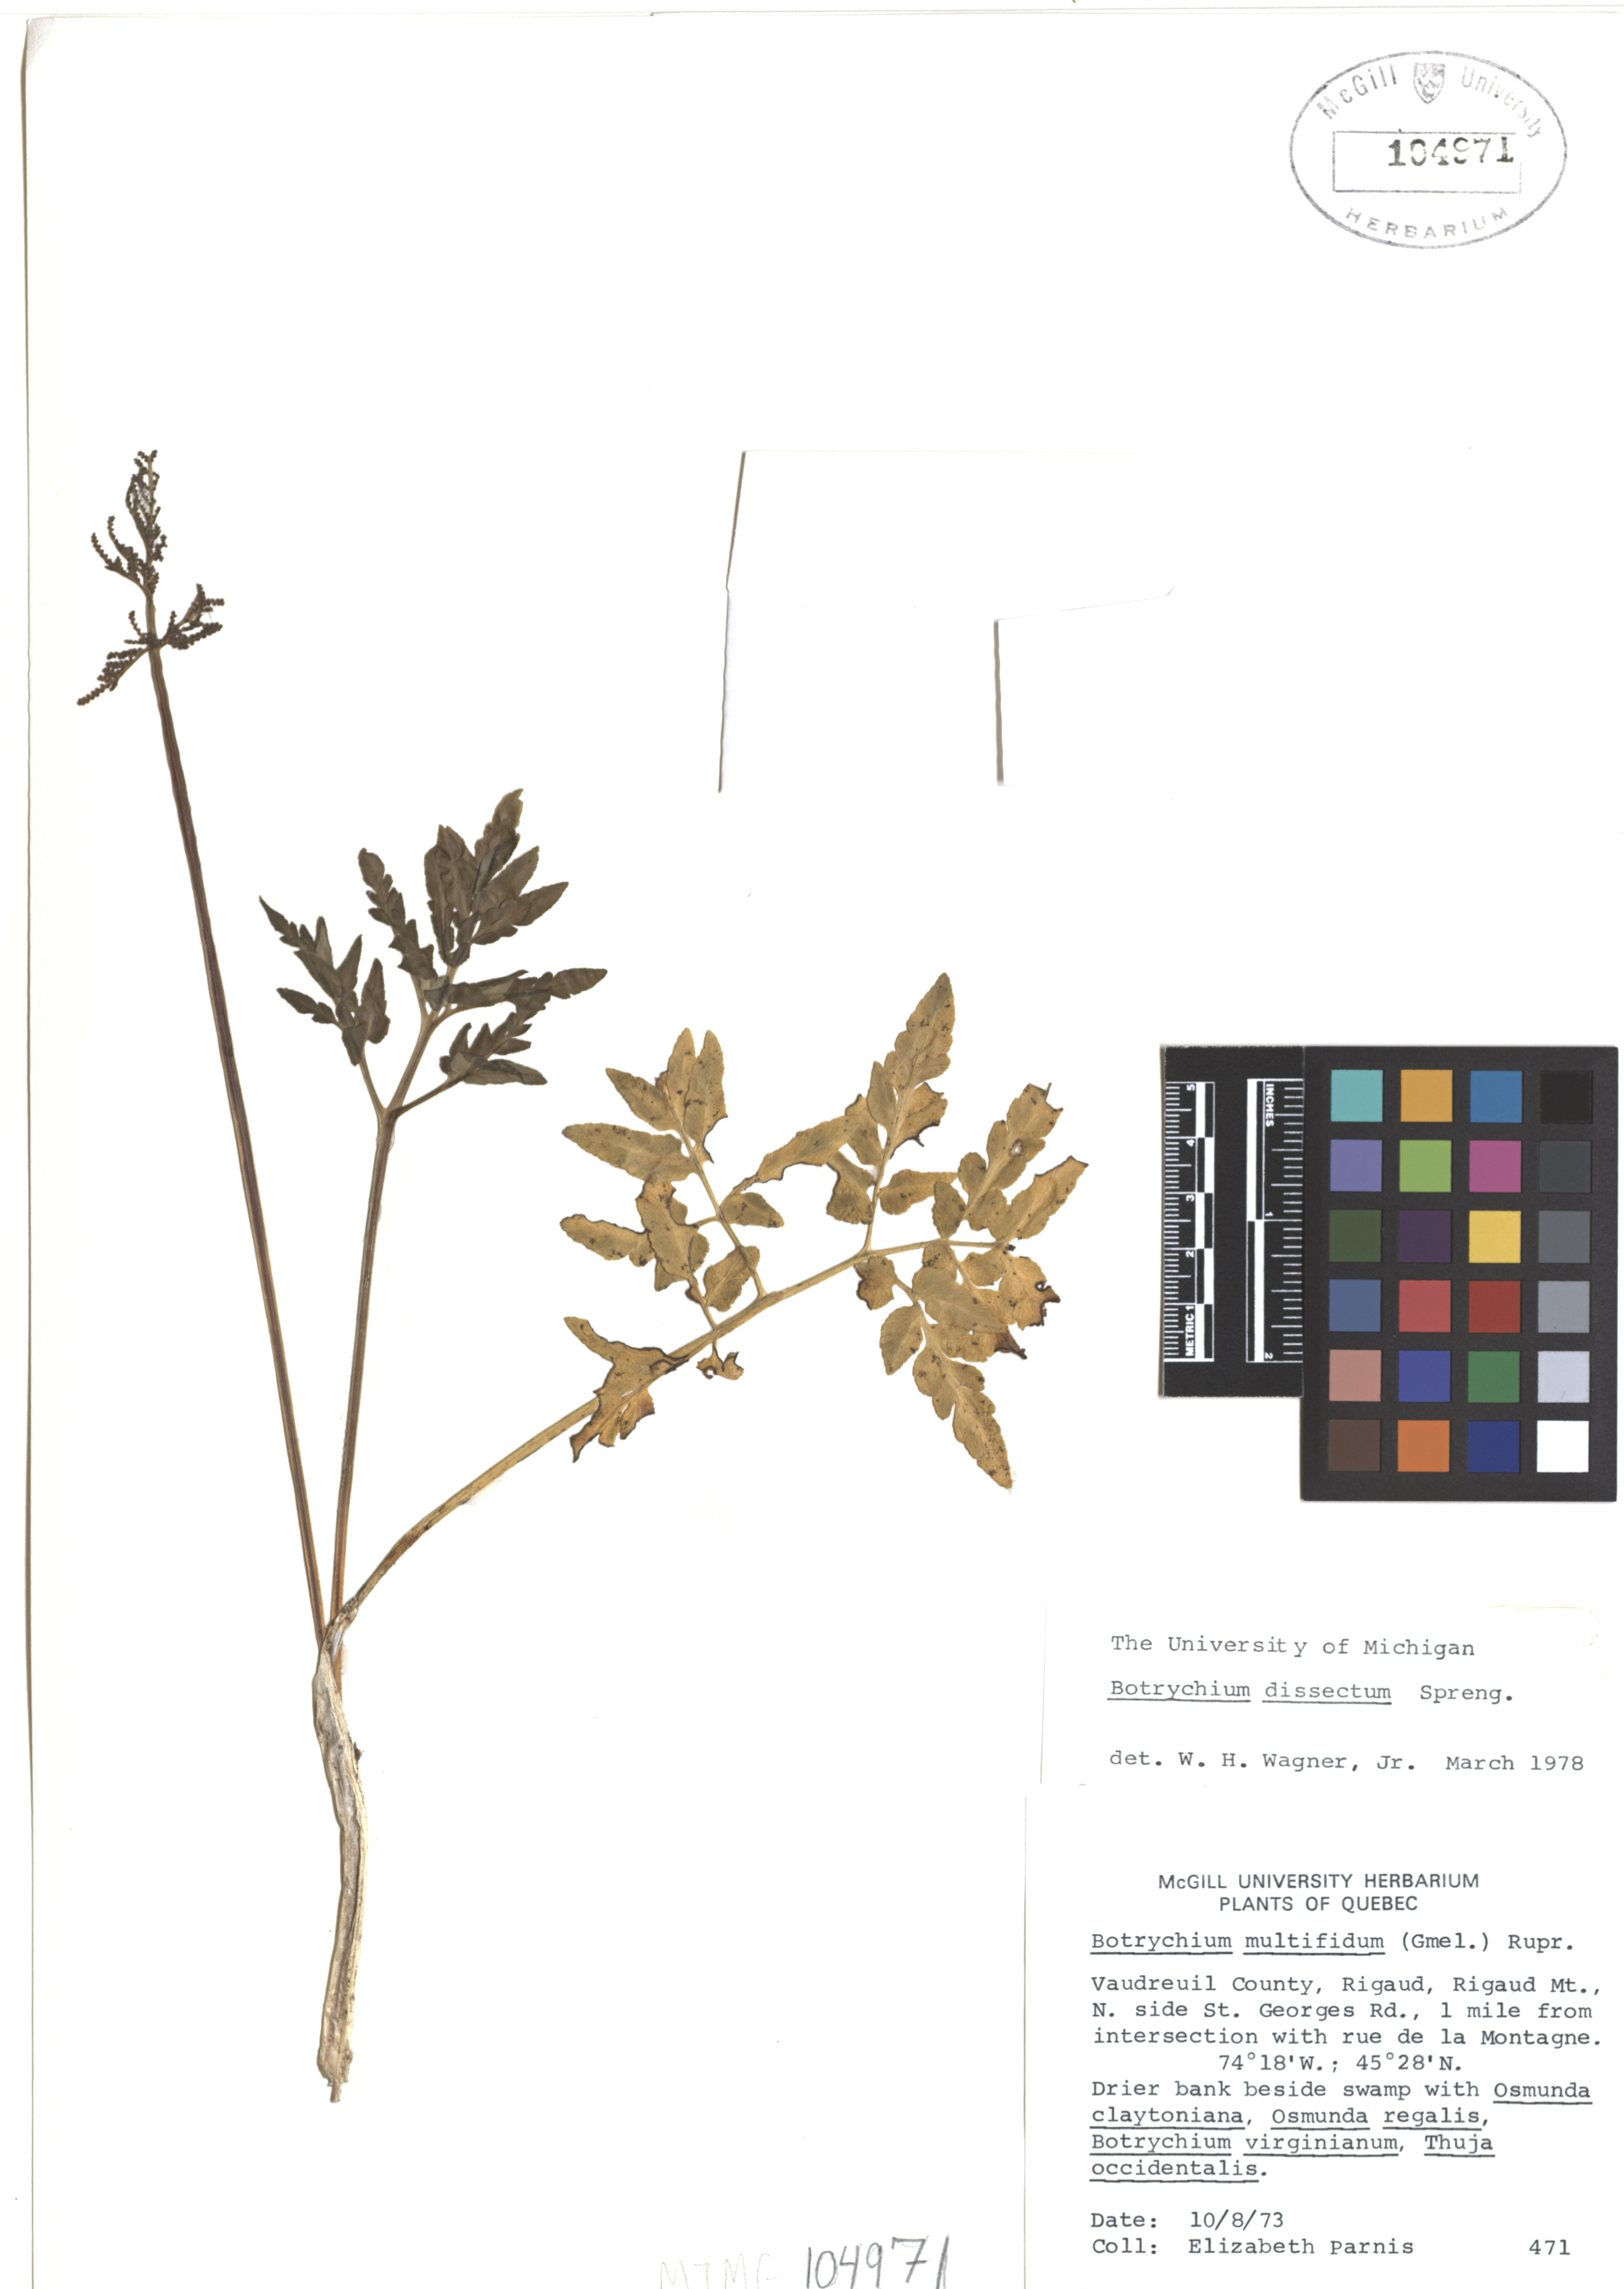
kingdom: Plantae
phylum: Tracheophyta
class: Polypodiopsida
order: Ophioglossales
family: Ophioglossaceae
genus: Sceptridium
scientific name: Sceptridium dissectum
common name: Cut-leaved grapefern
